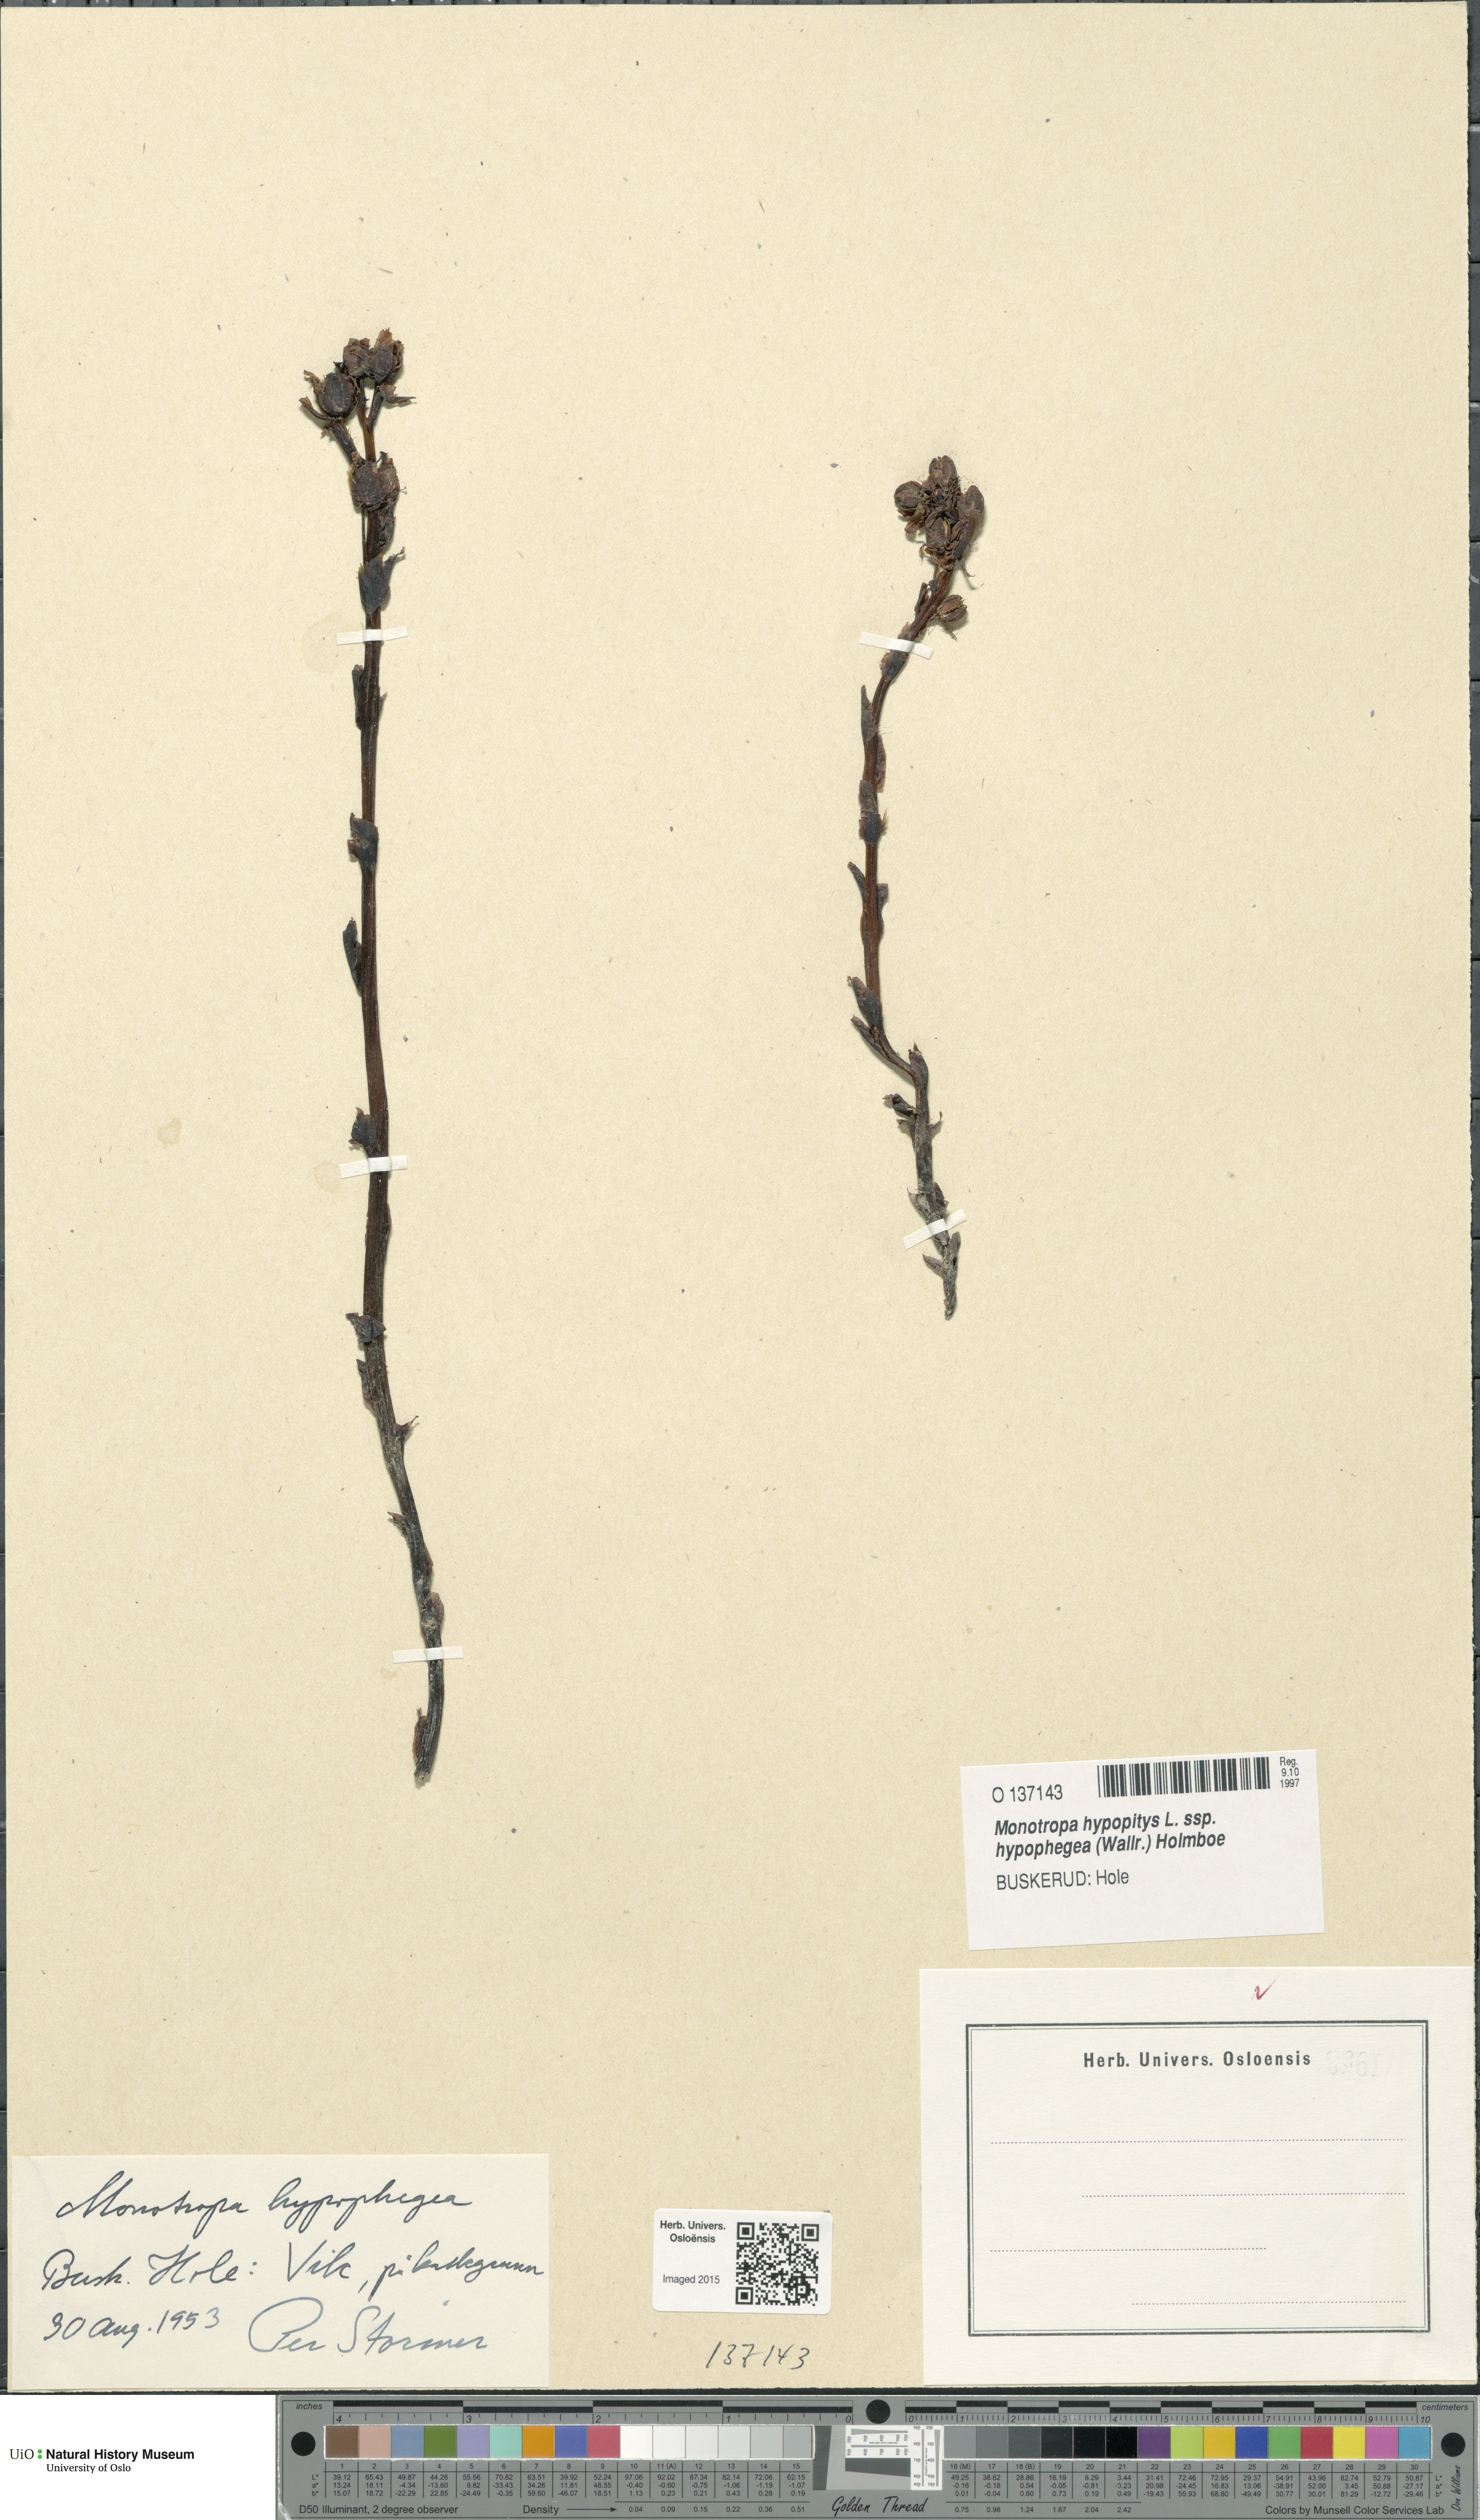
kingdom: Plantae
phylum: Tracheophyta
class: Magnoliopsida
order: Ericales
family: Ericaceae
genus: Hypopitys
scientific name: Hypopitys hypophegea
